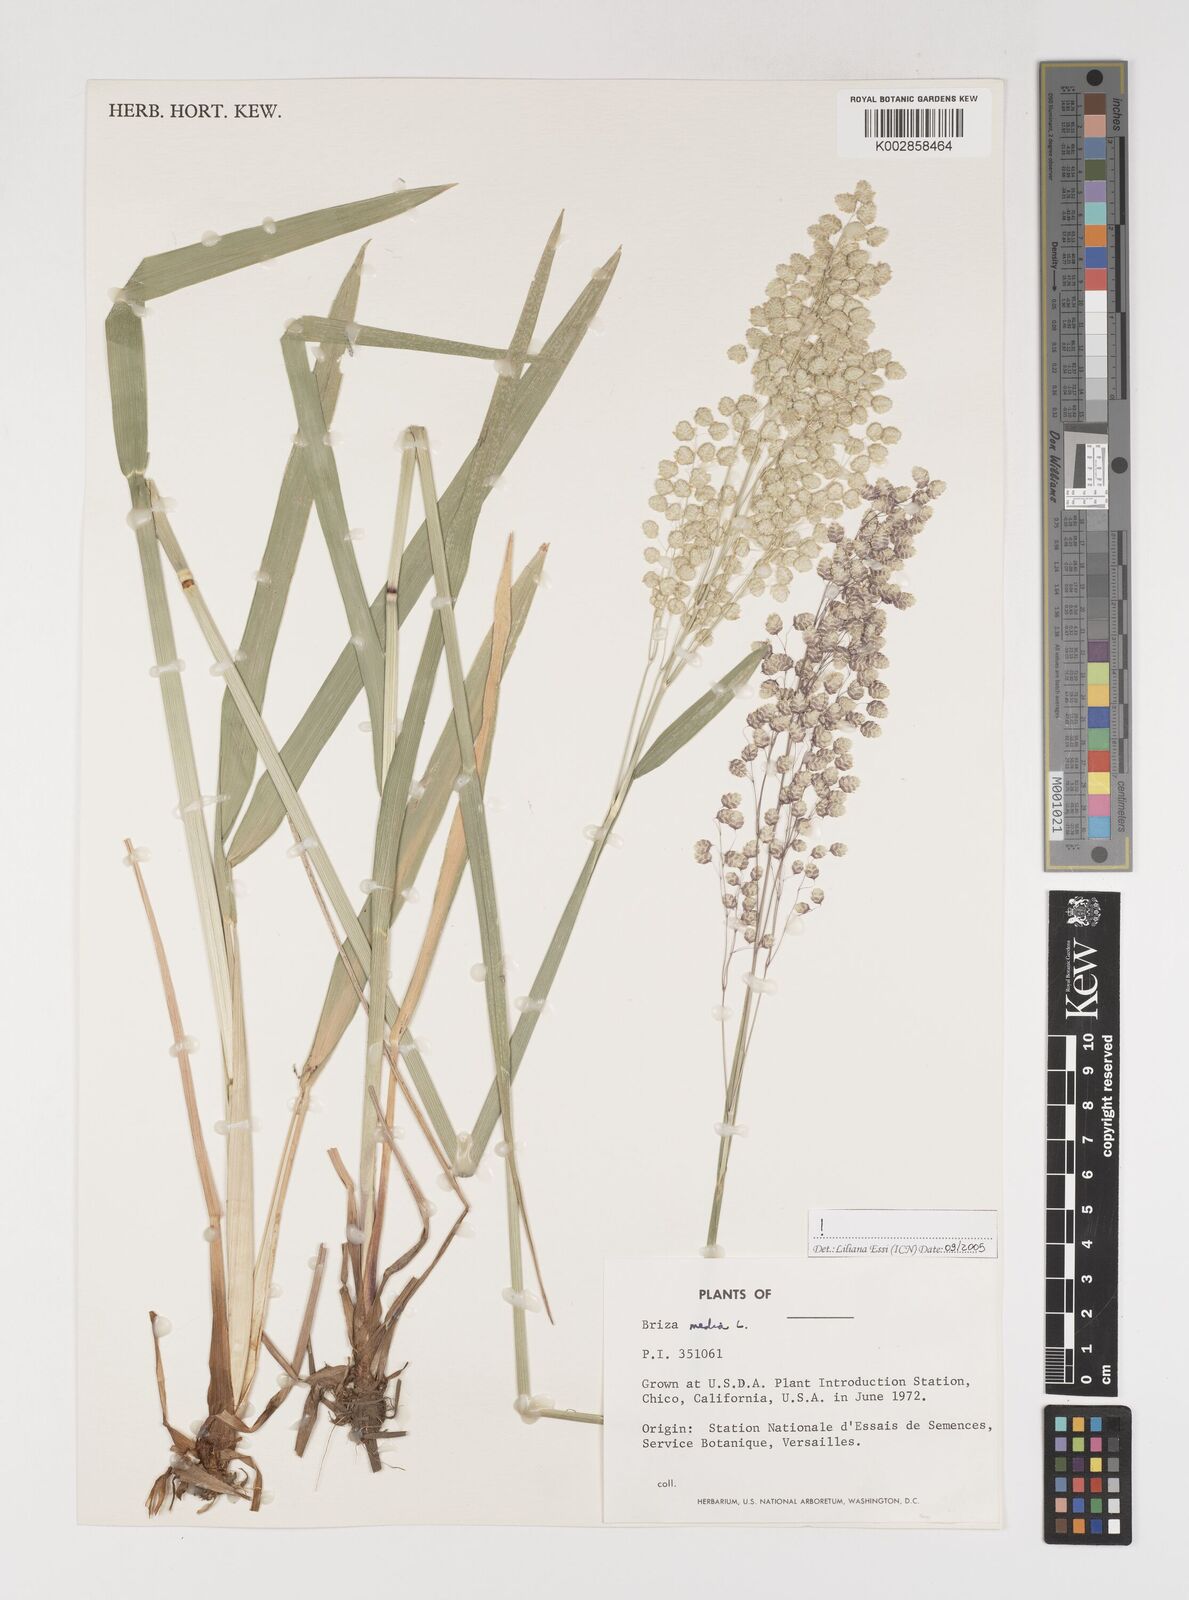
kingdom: Plantae
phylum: Tracheophyta
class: Liliopsida
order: Poales
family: Poaceae
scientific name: Poaceae
